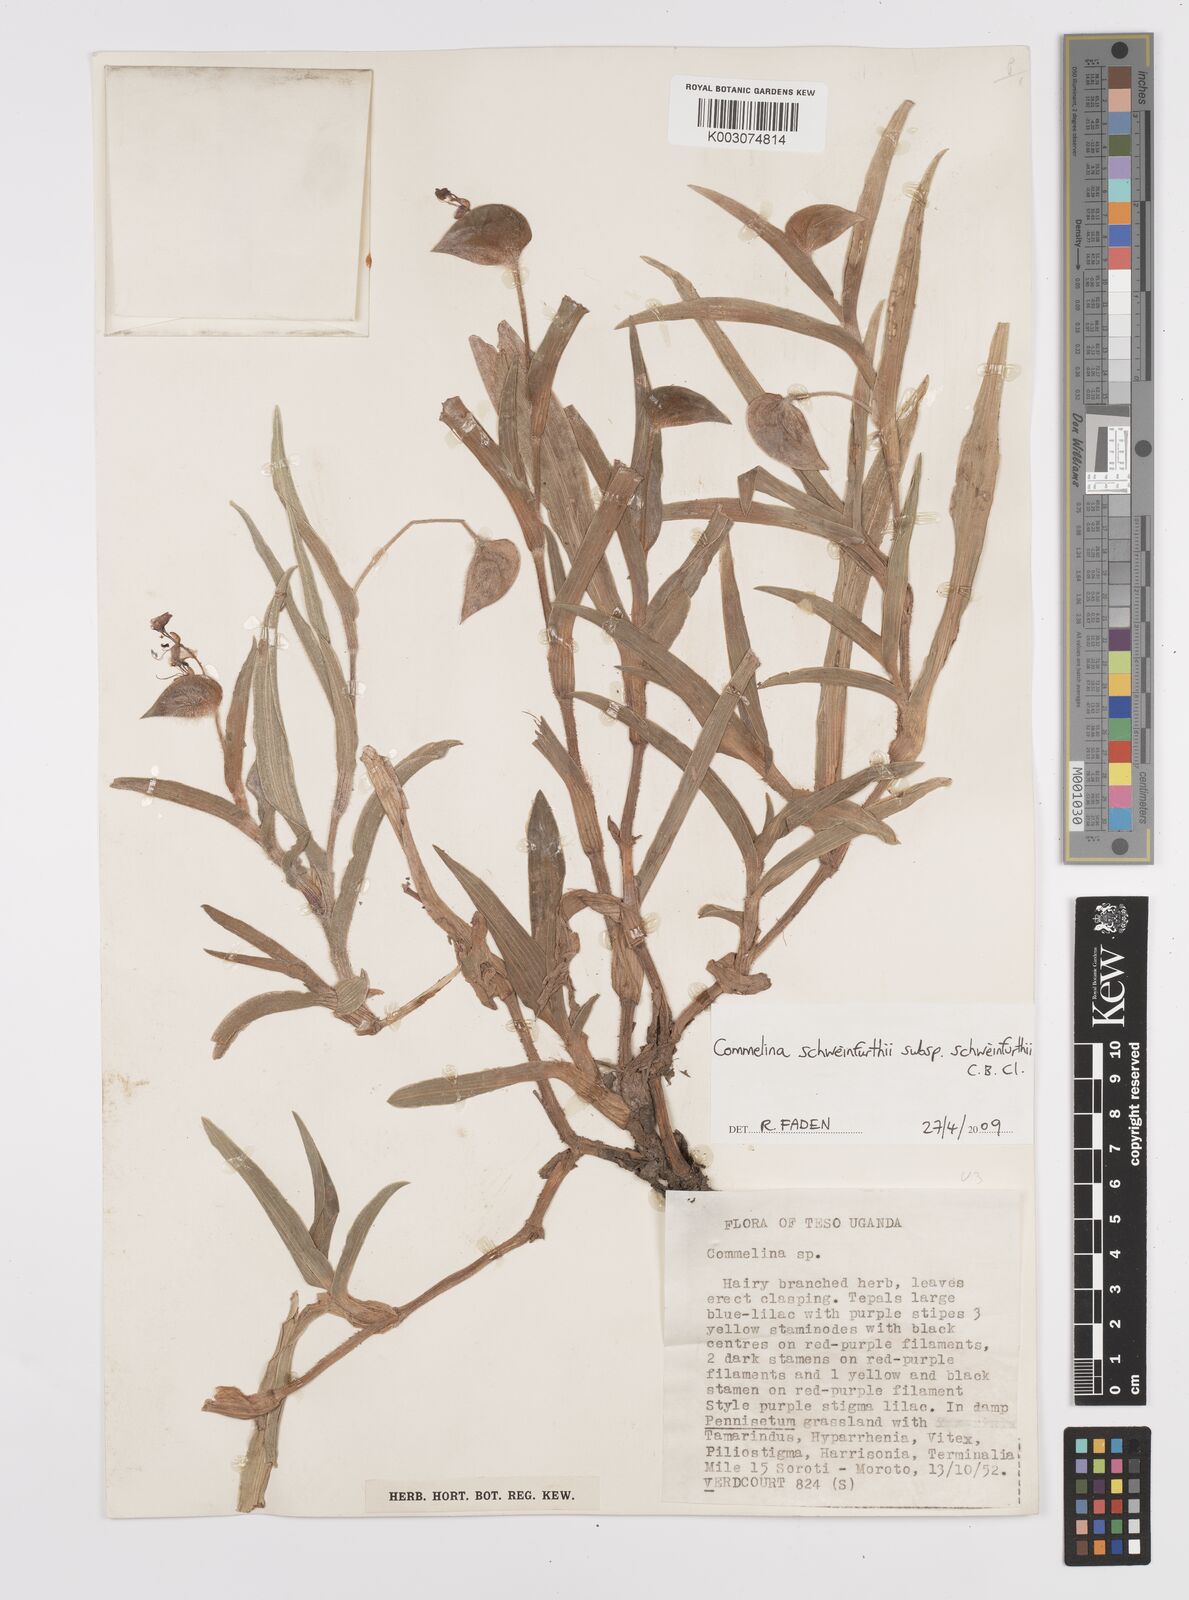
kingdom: Plantae
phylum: Tracheophyta
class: Liliopsida
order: Commelinales
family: Commelinaceae
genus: Commelina
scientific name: Commelina schweinfurthii
